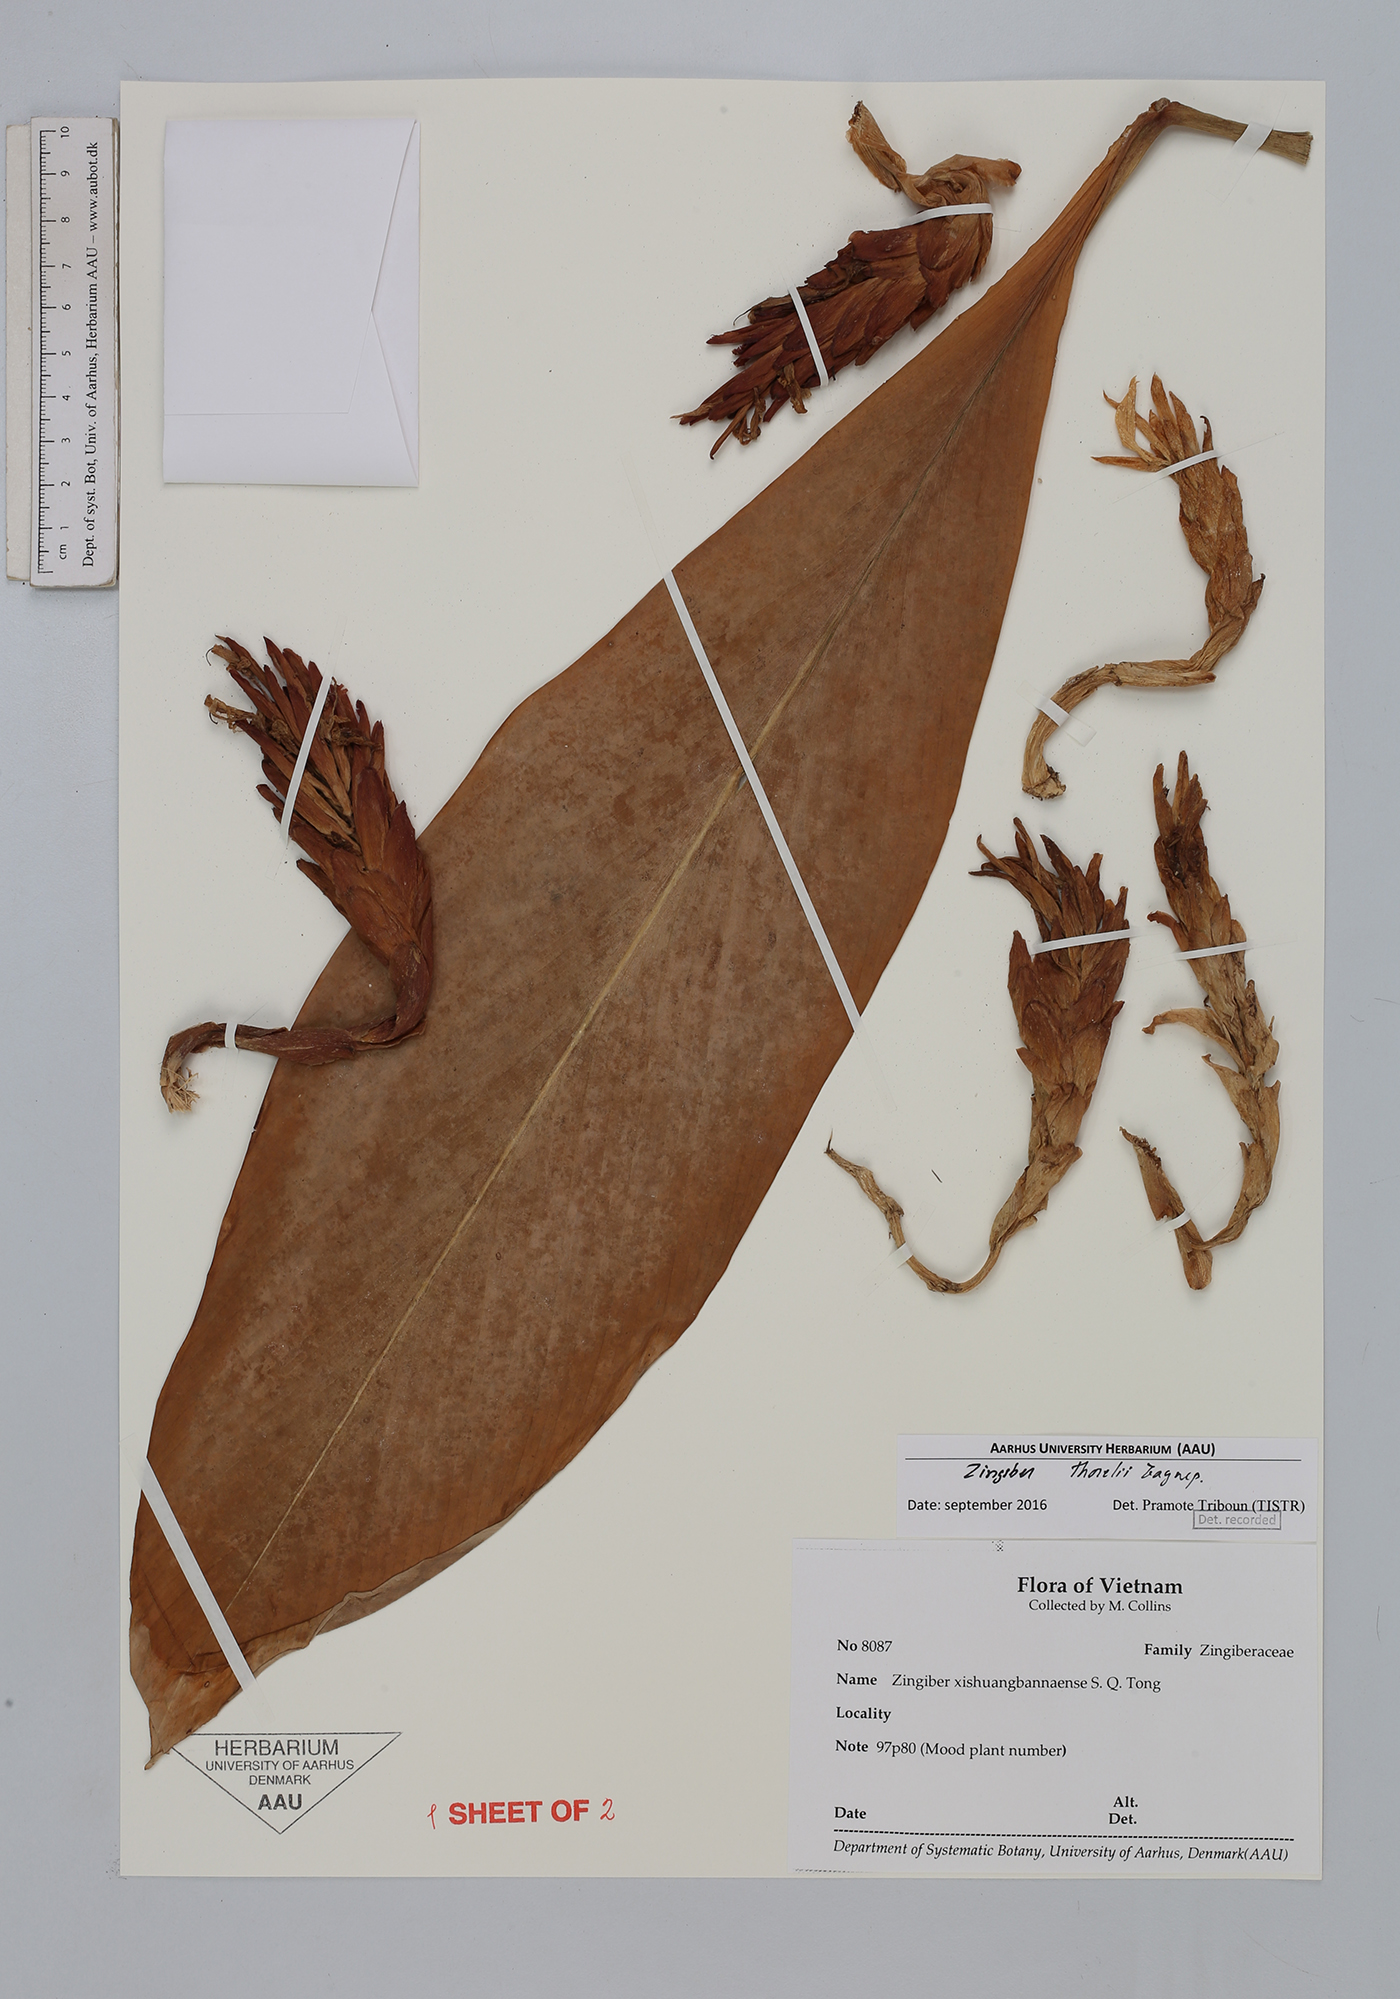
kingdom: Plantae
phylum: Tracheophyta
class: Liliopsida
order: Zingiberales
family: Zingiberaceae
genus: Zingiber
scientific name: Zingiber thorelii
